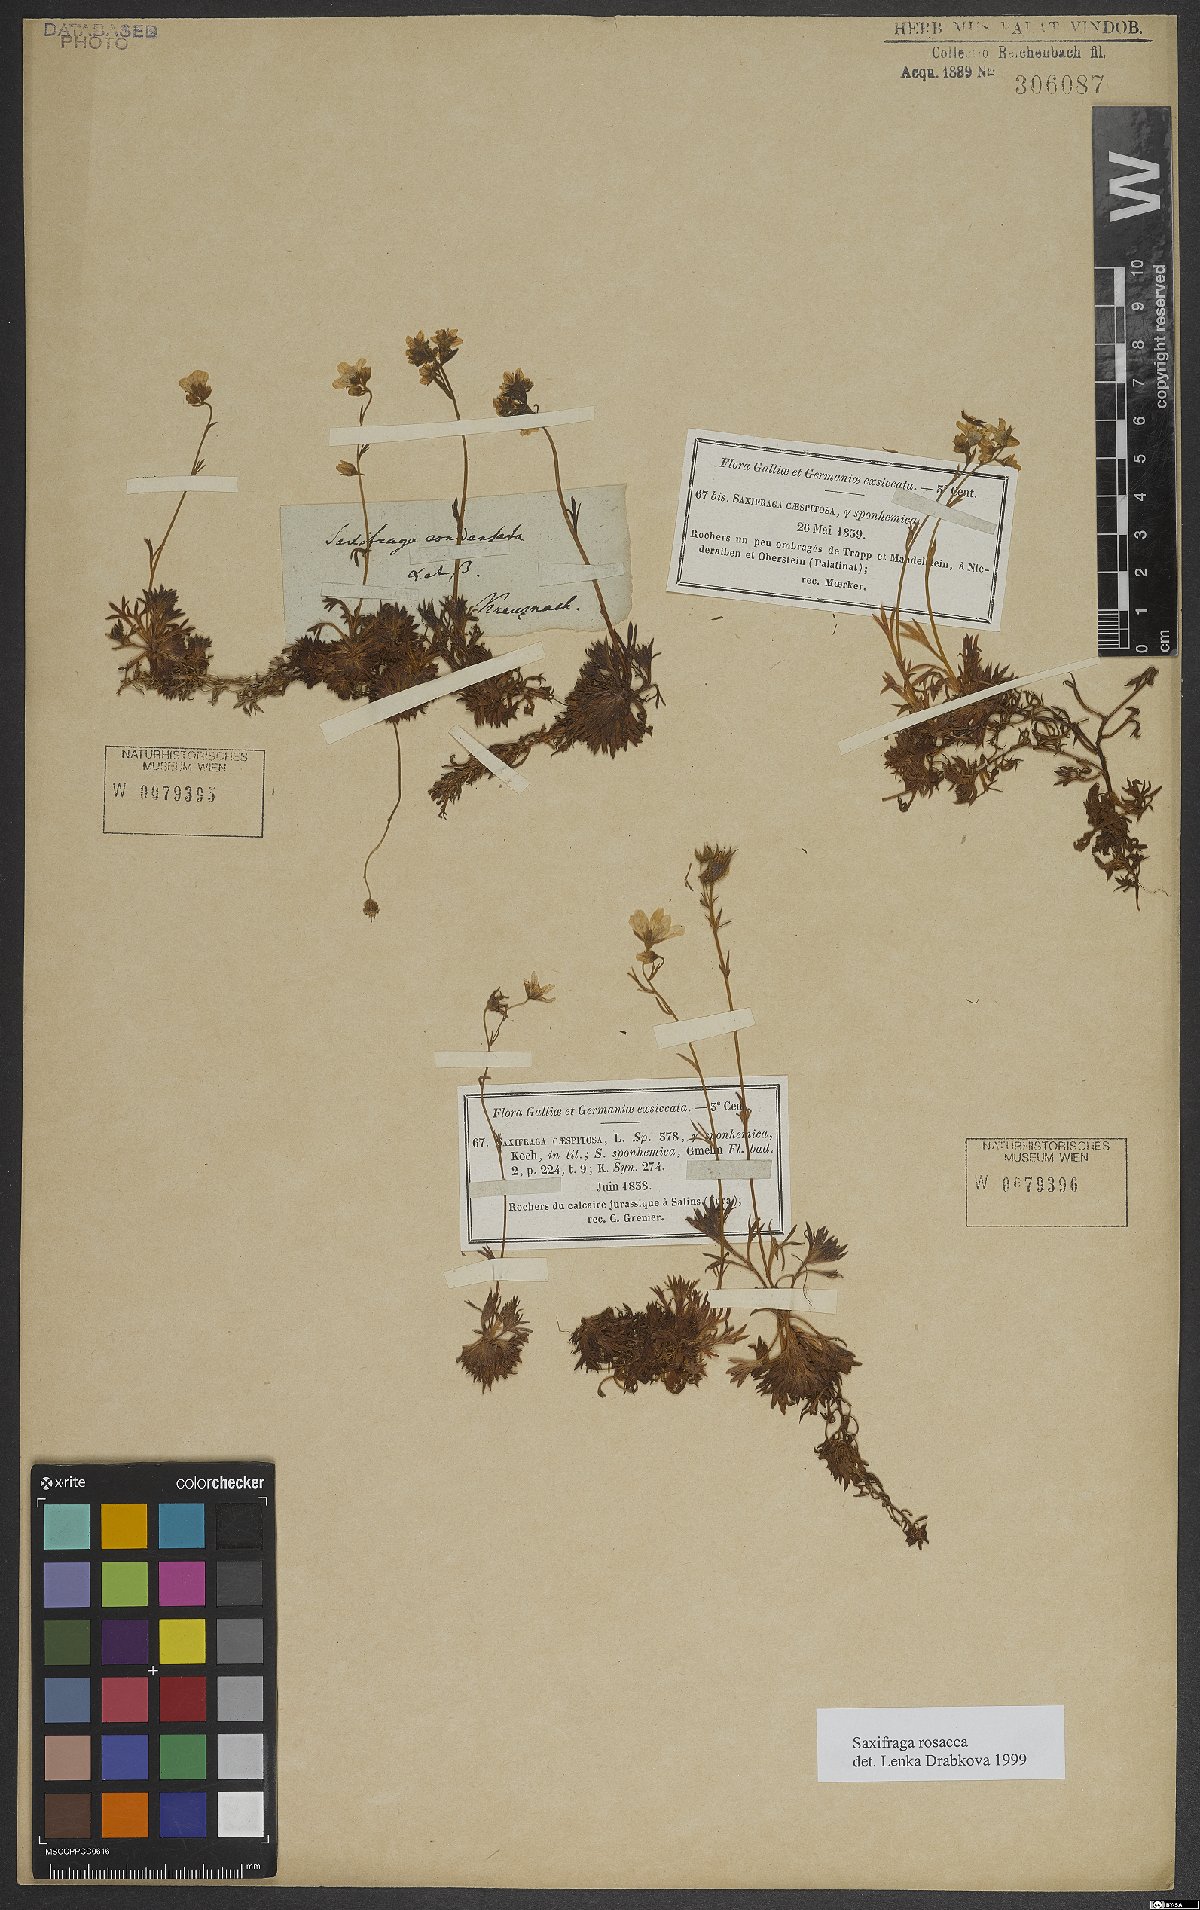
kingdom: Plantae
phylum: Tracheophyta
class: Magnoliopsida
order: Saxifragales
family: Saxifragaceae
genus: Saxifraga
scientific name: Saxifraga rosacea
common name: Irish saxifrage
